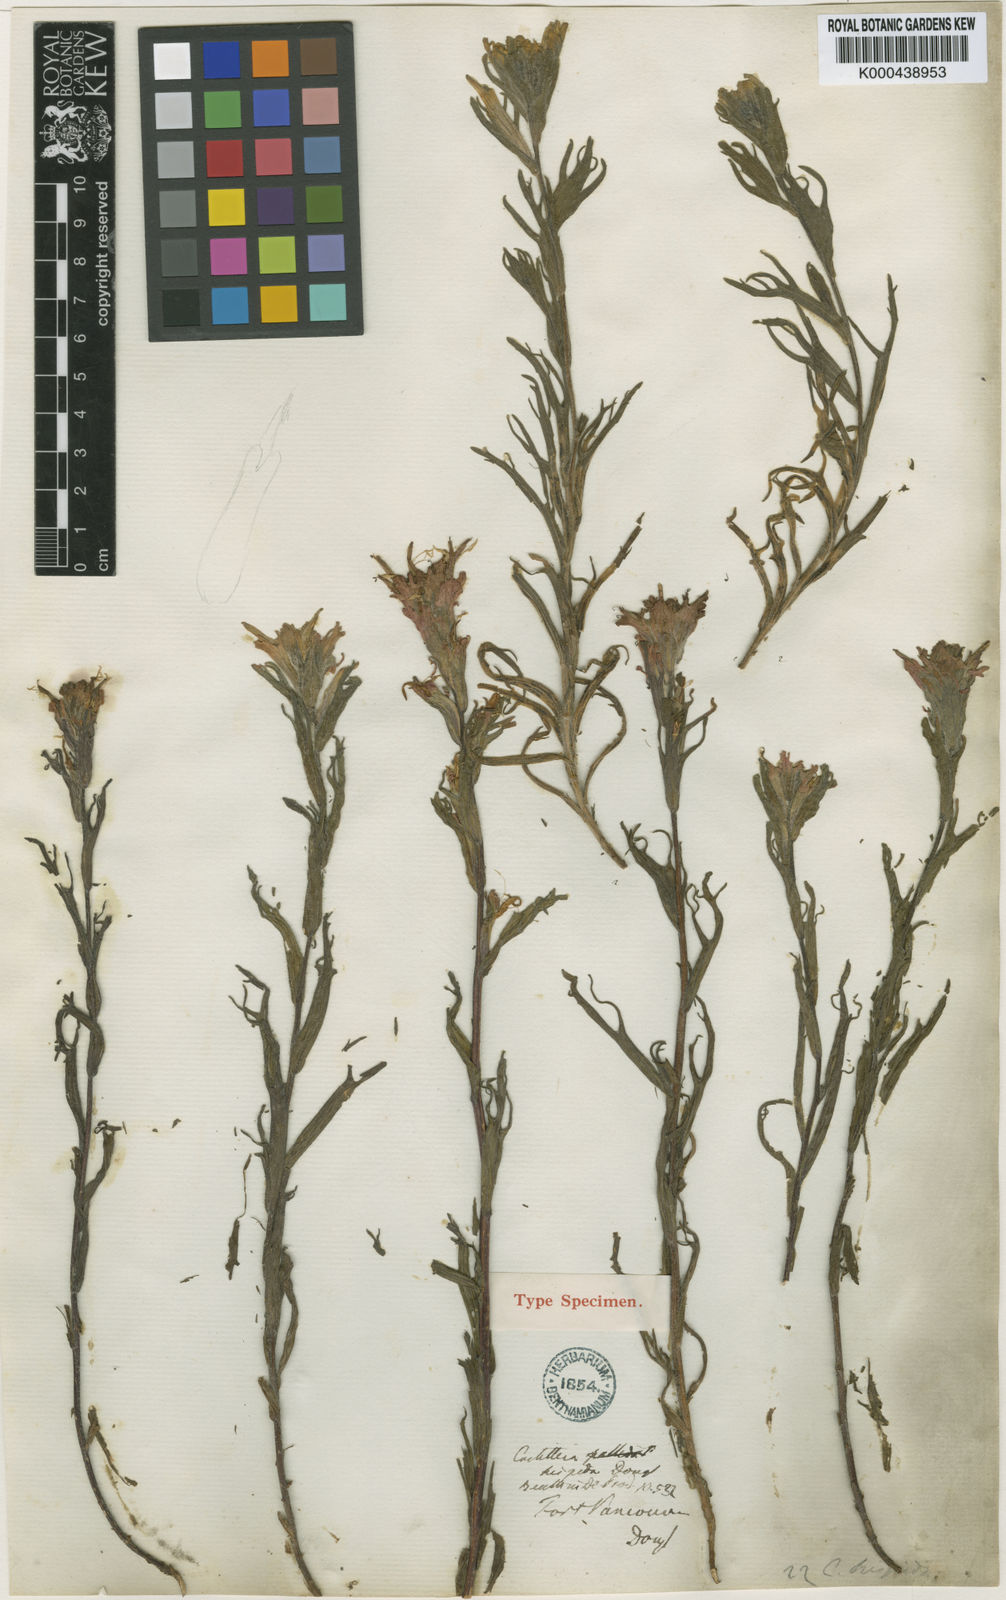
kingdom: Plantae
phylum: Tracheophyta
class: Magnoliopsida
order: Lamiales
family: Orobanchaceae
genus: Castilleja
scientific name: Castilleja
